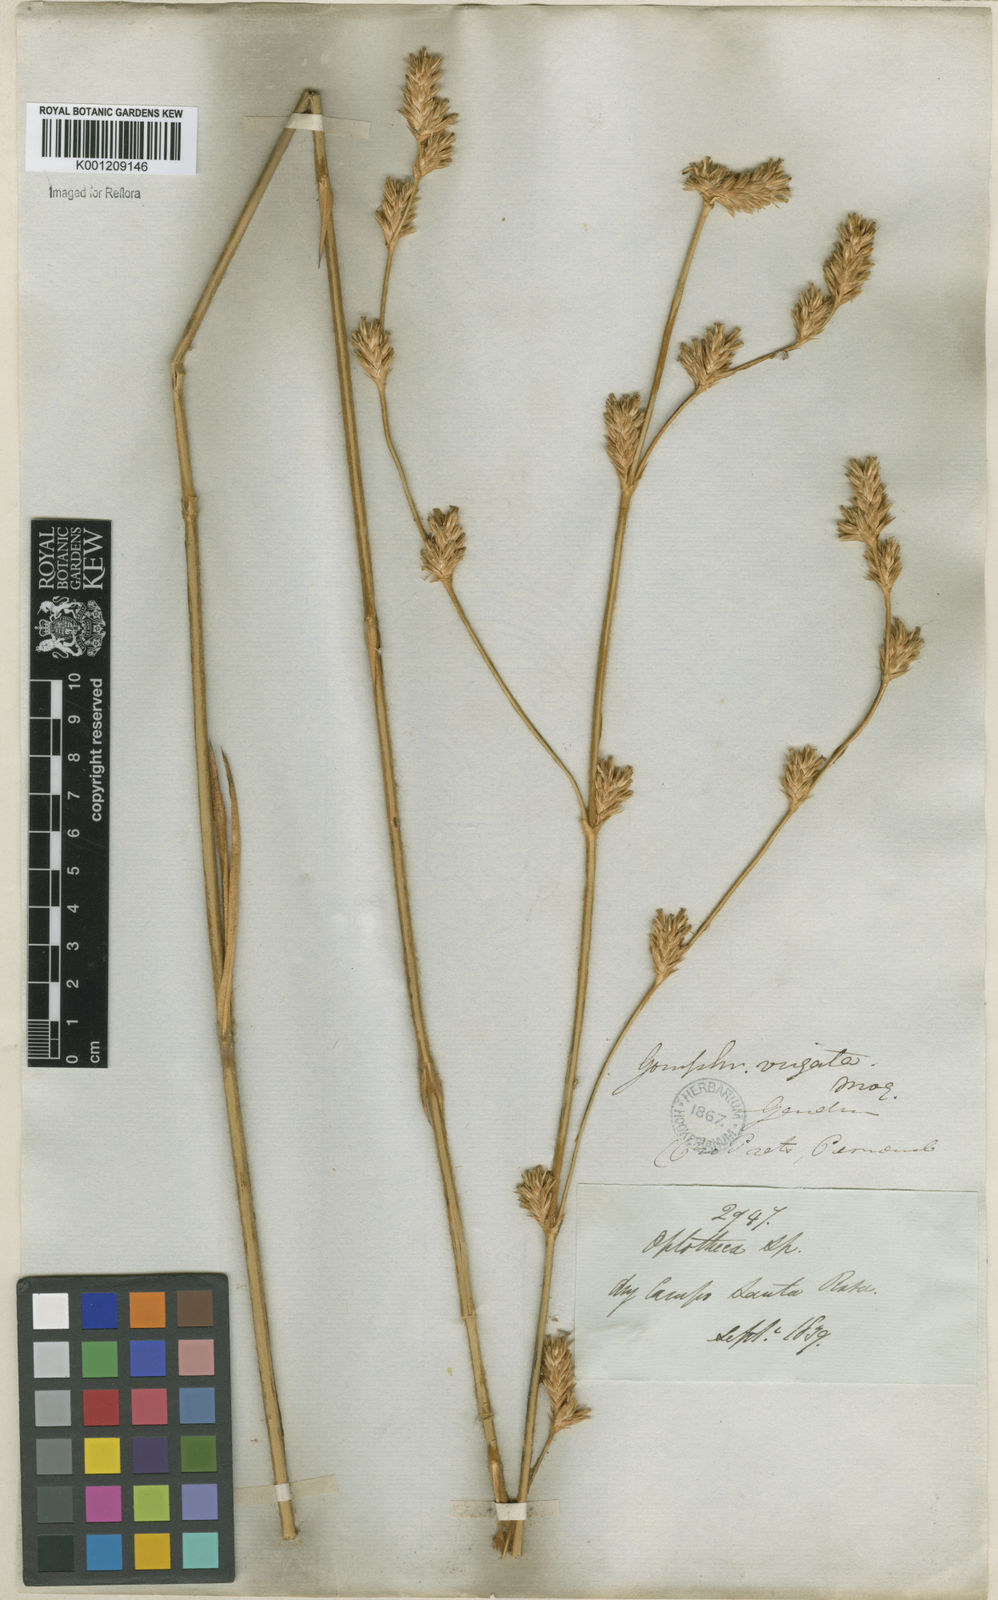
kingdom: Plantae
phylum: Tracheophyta
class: Magnoliopsida
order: Caryophyllales
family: Amaranthaceae
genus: Gomphrena
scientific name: Gomphrena virgata
